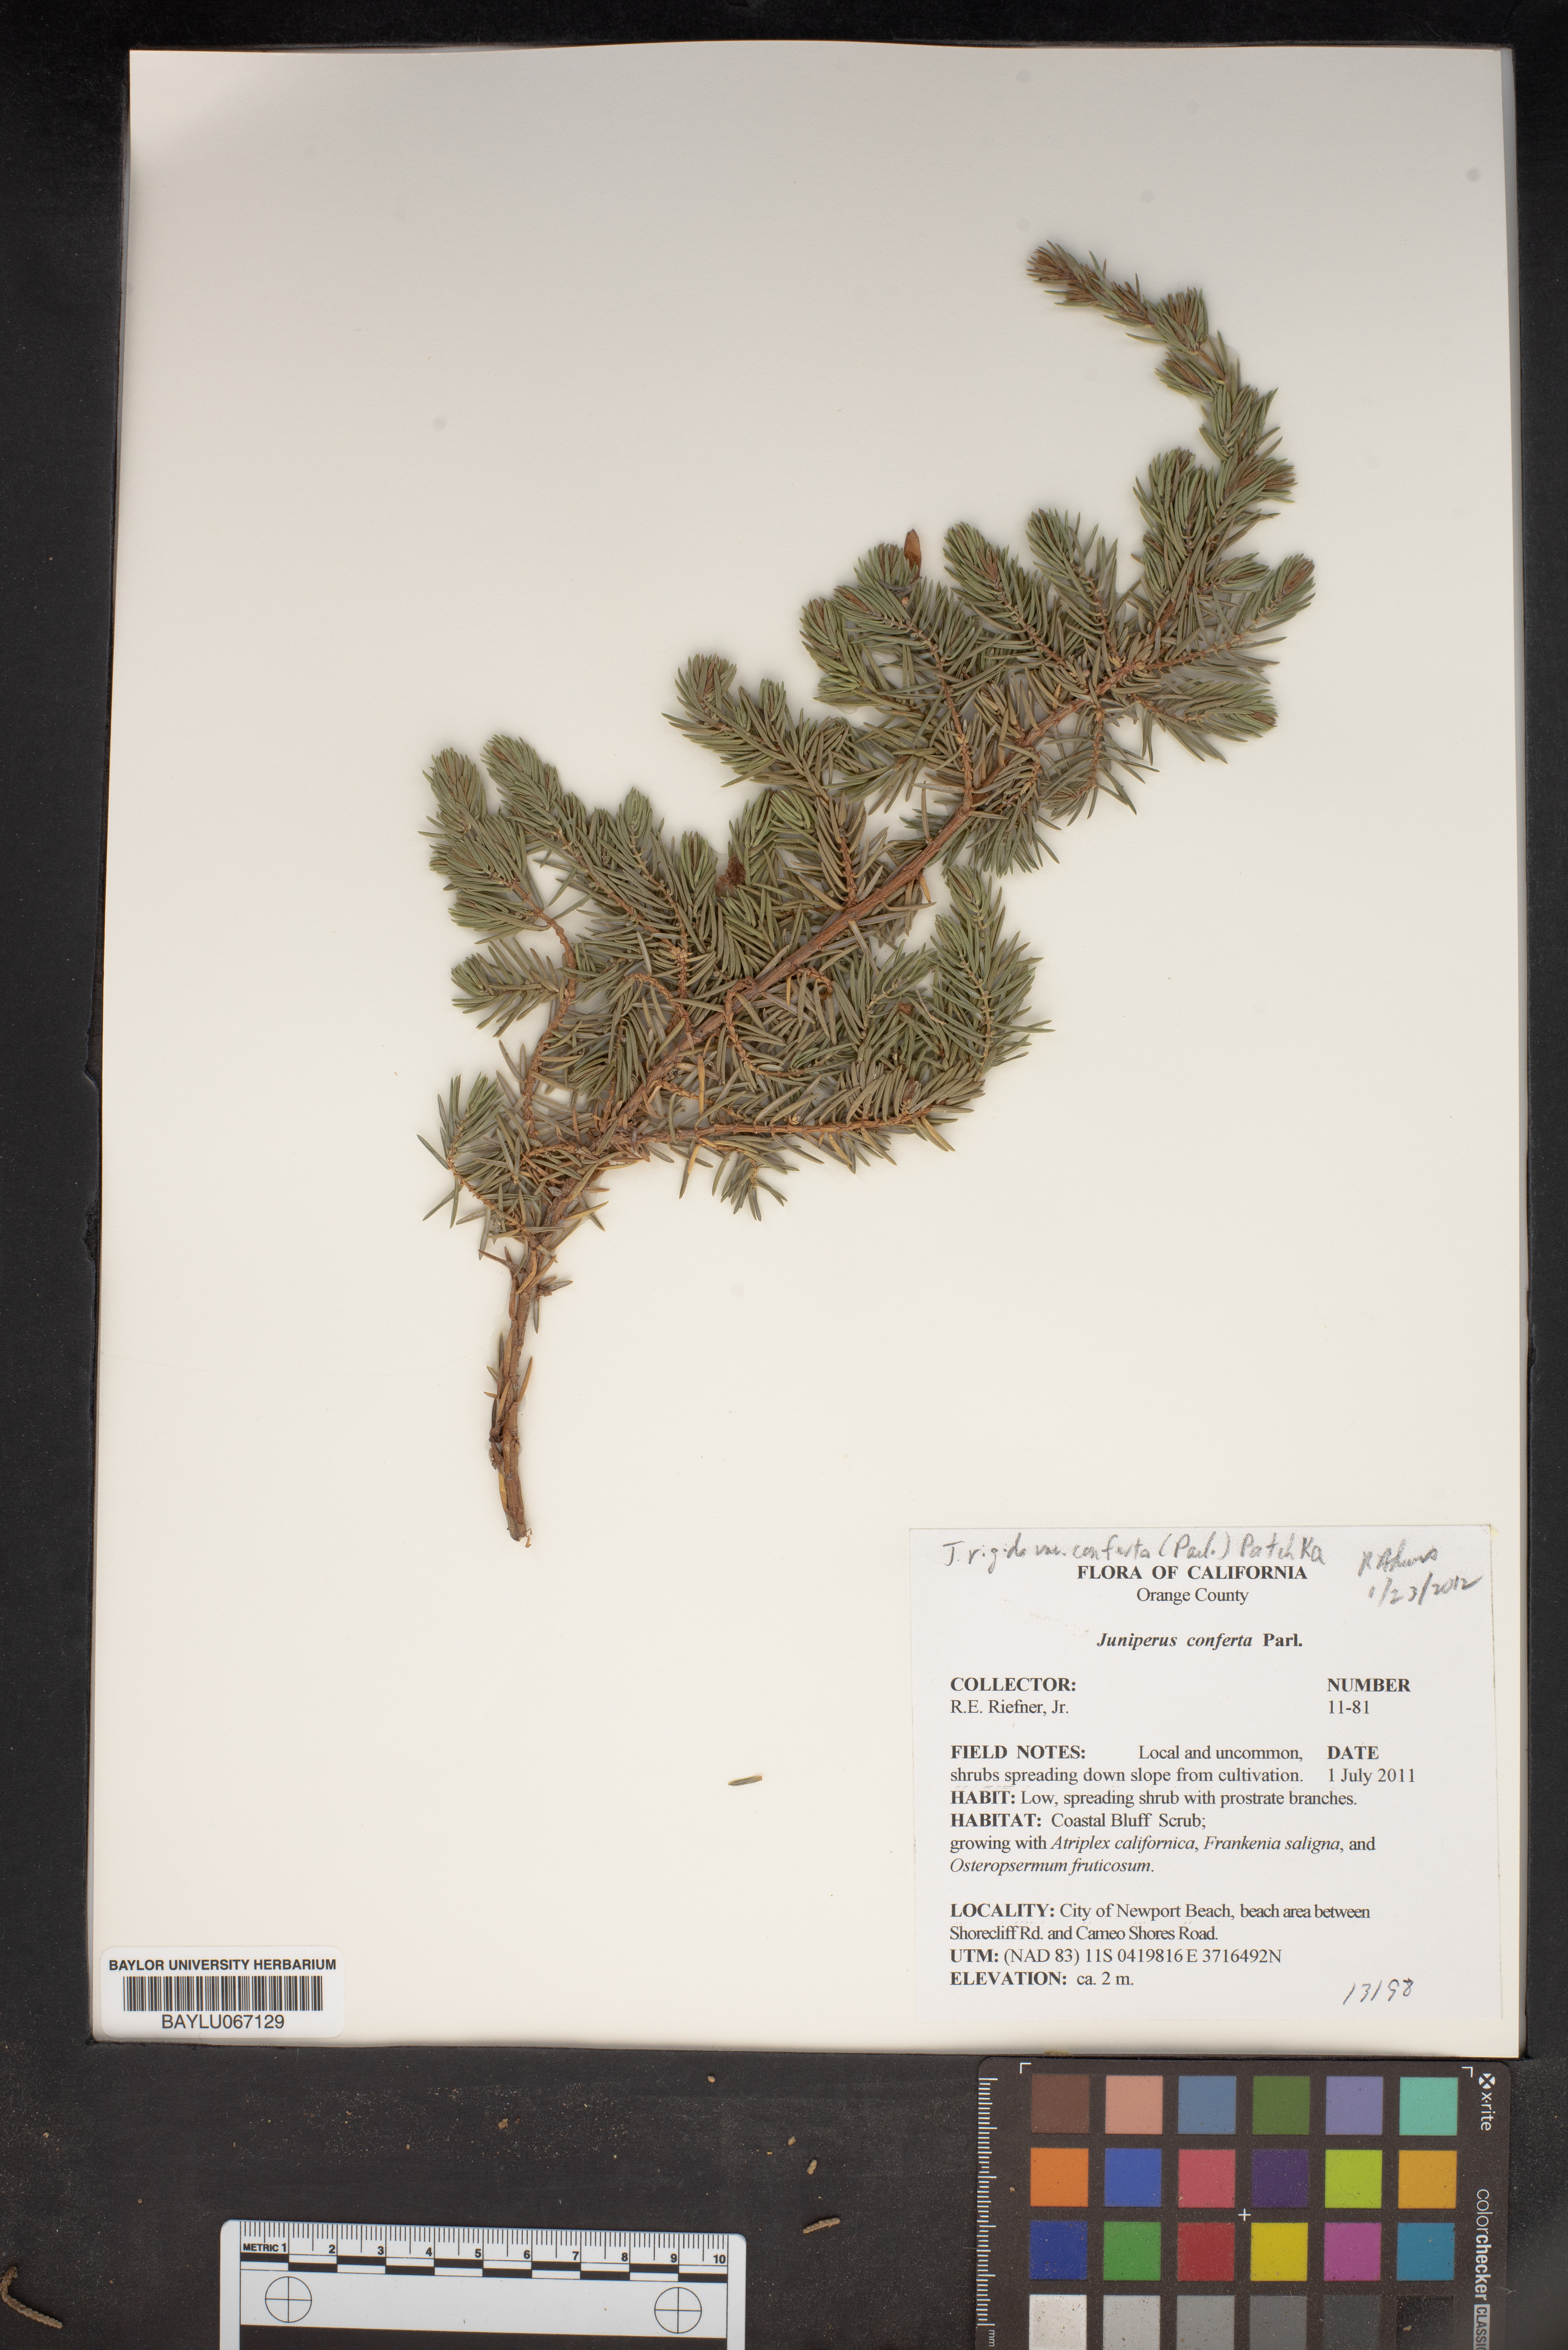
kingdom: Plantae
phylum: Tracheophyta
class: Pinopsida
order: Pinales
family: Cupressaceae
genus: Juniperus
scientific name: Juniperus rigida
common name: Needle juniper
